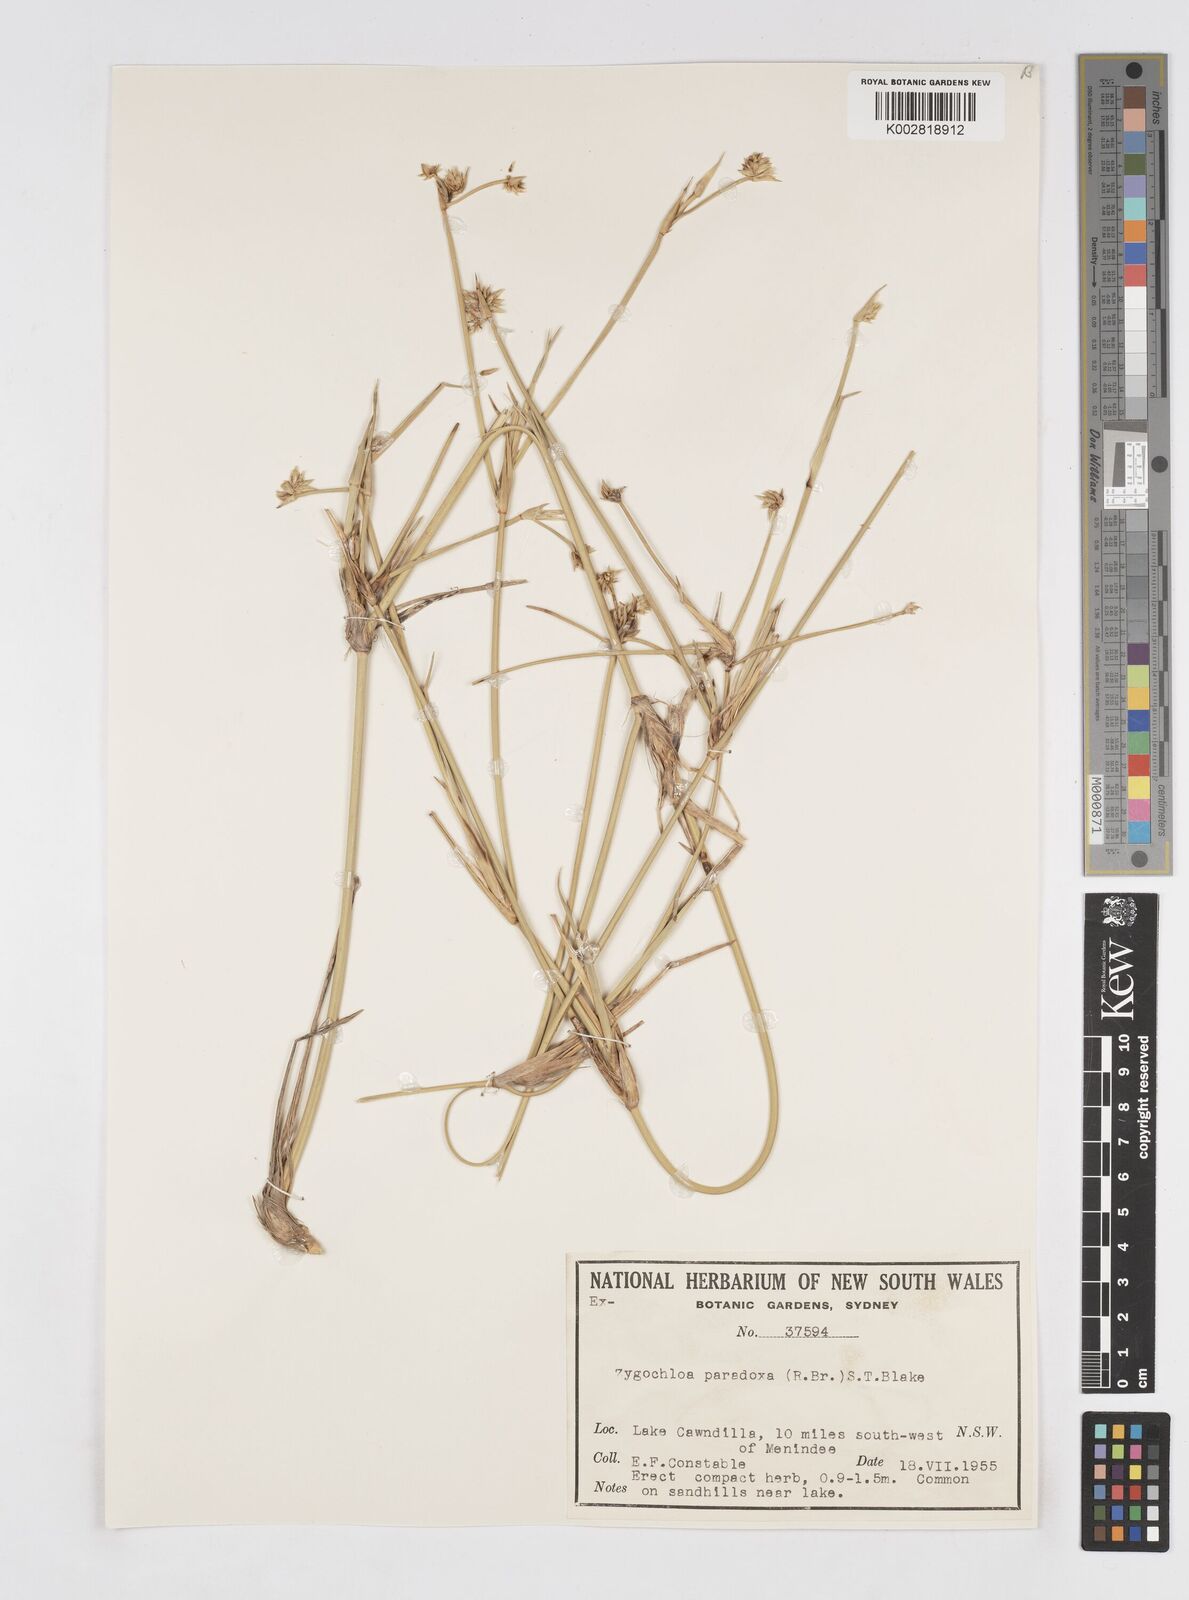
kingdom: Plantae
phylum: Tracheophyta
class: Liliopsida
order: Poales
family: Poaceae
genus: Zygochloa
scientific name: Zygochloa paradoxa
